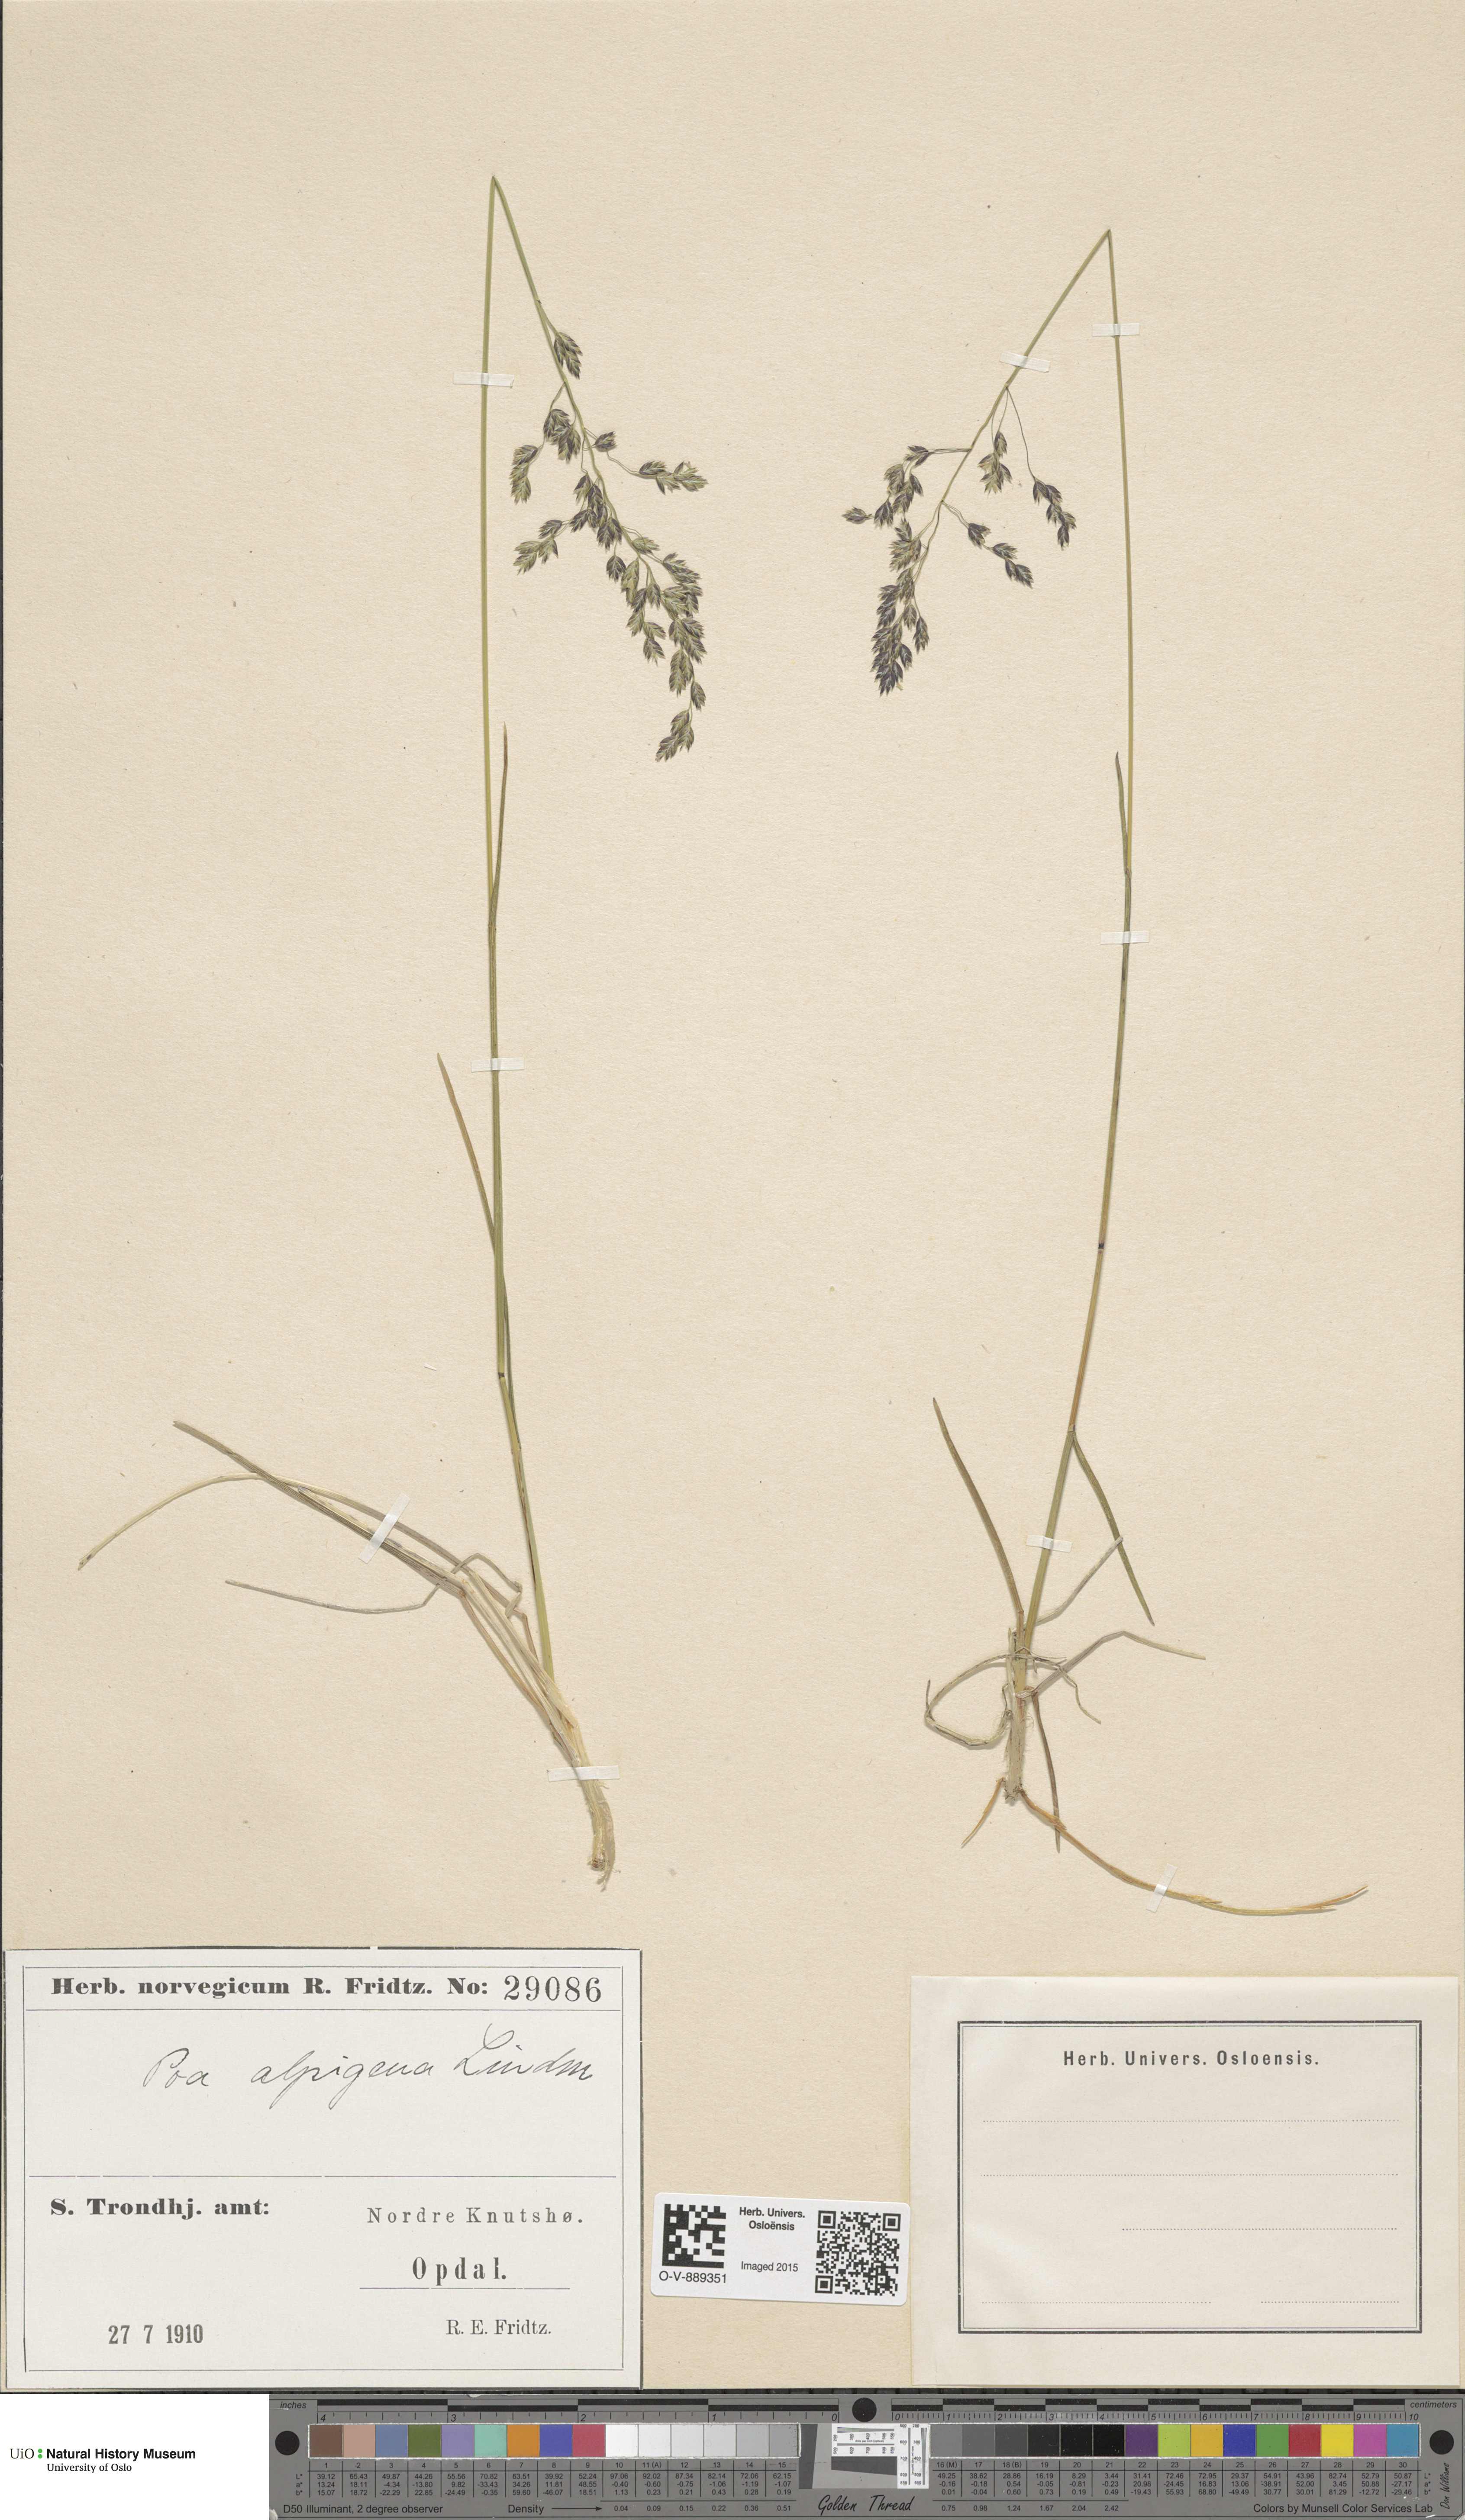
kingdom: Plantae
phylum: Tracheophyta
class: Liliopsida
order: Poales
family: Poaceae
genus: Poa
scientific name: Poa alpigena
